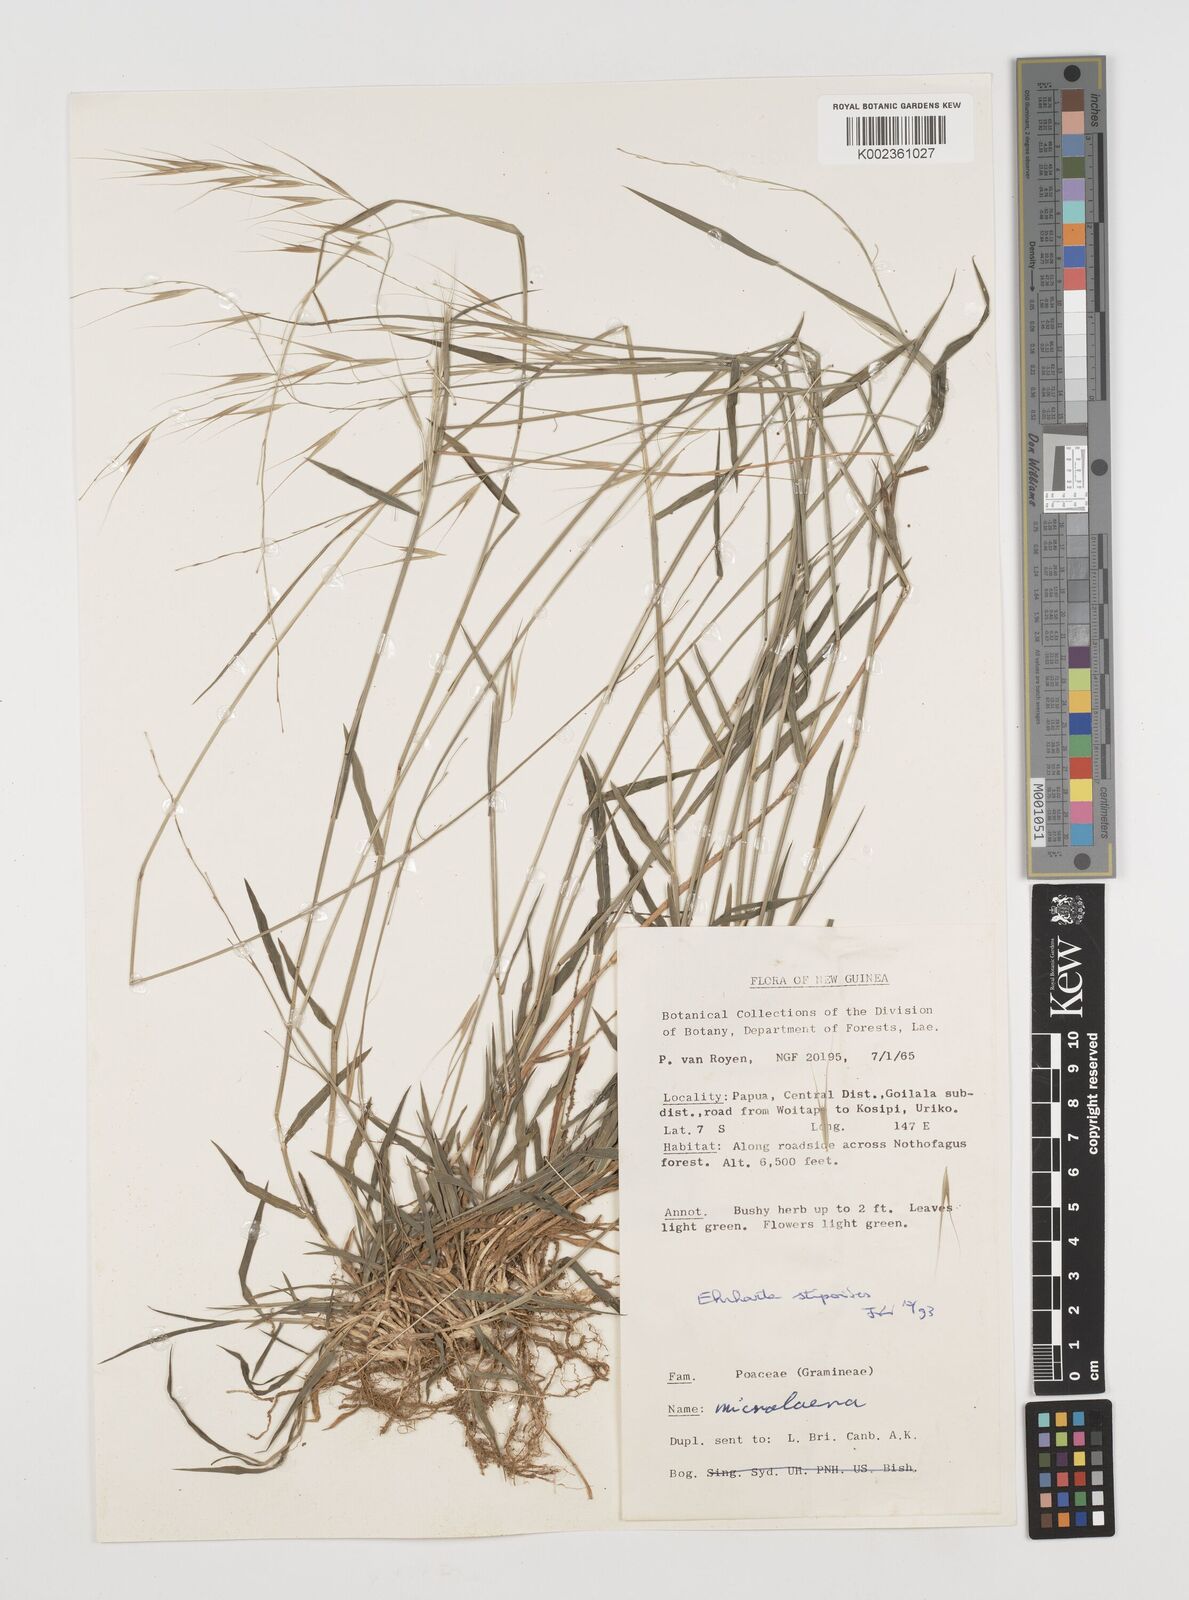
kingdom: Plantae
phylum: Tracheophyta
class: Liliopsida
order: Poales
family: Poaceae
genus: Microlaena
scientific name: Microlaena stipoides
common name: Meadow ricegrass
